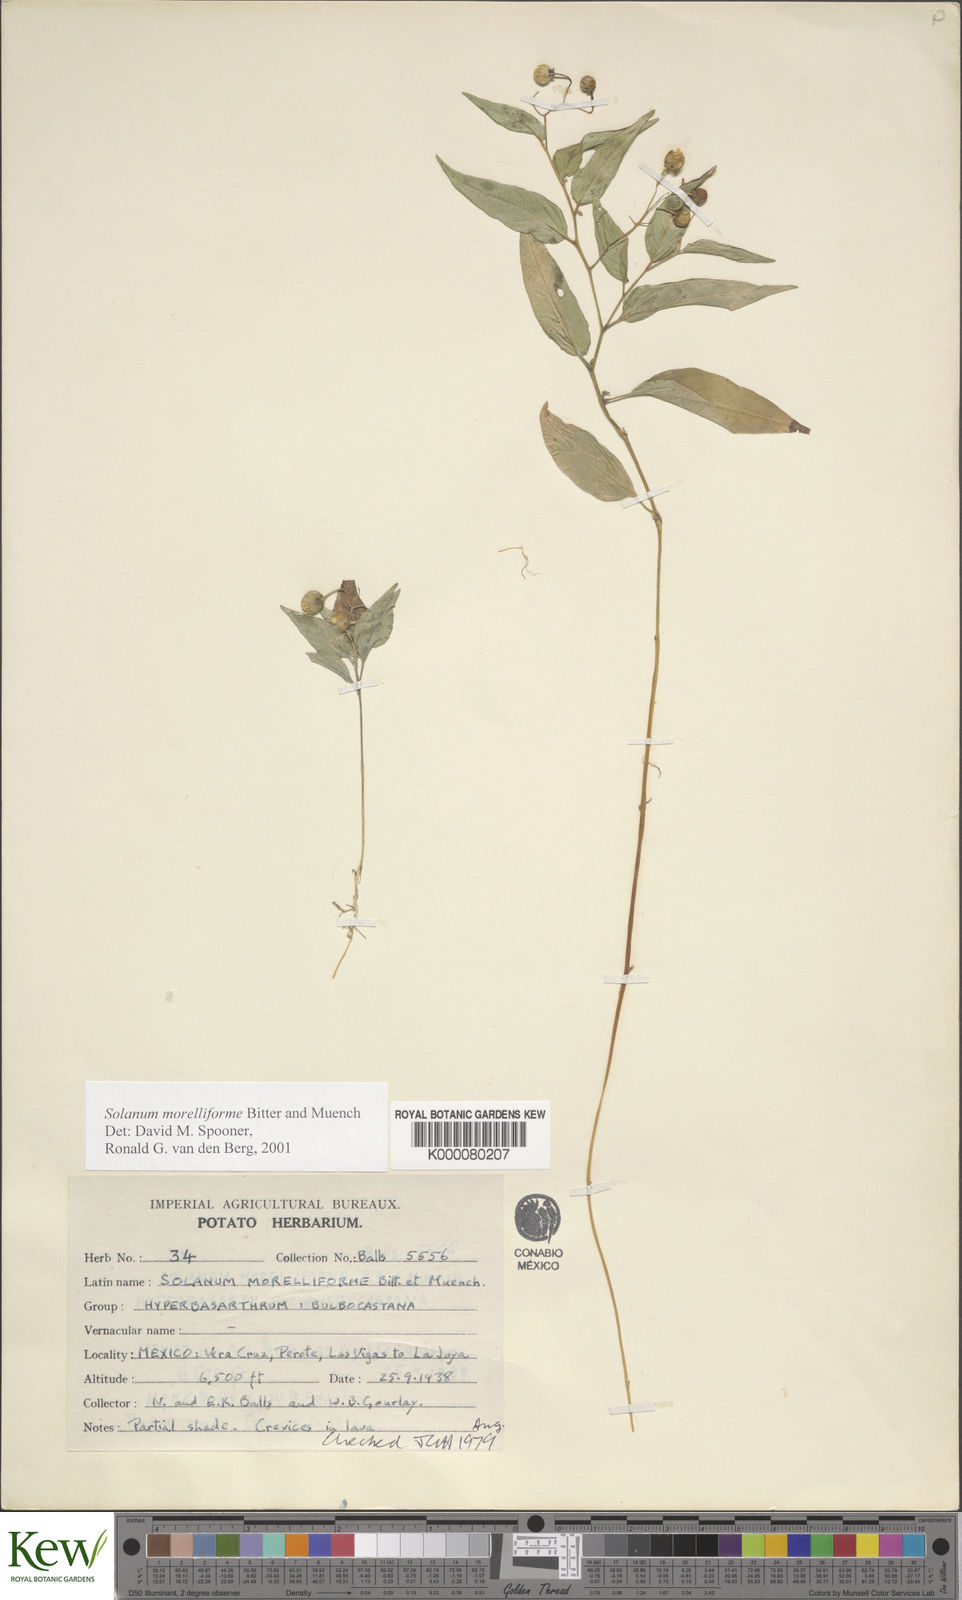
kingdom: Plantae
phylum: Tracheophyta
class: Magnoliopsida
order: Solanales
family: Solanaceae
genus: Solanum
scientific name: Solanum morelliforme
